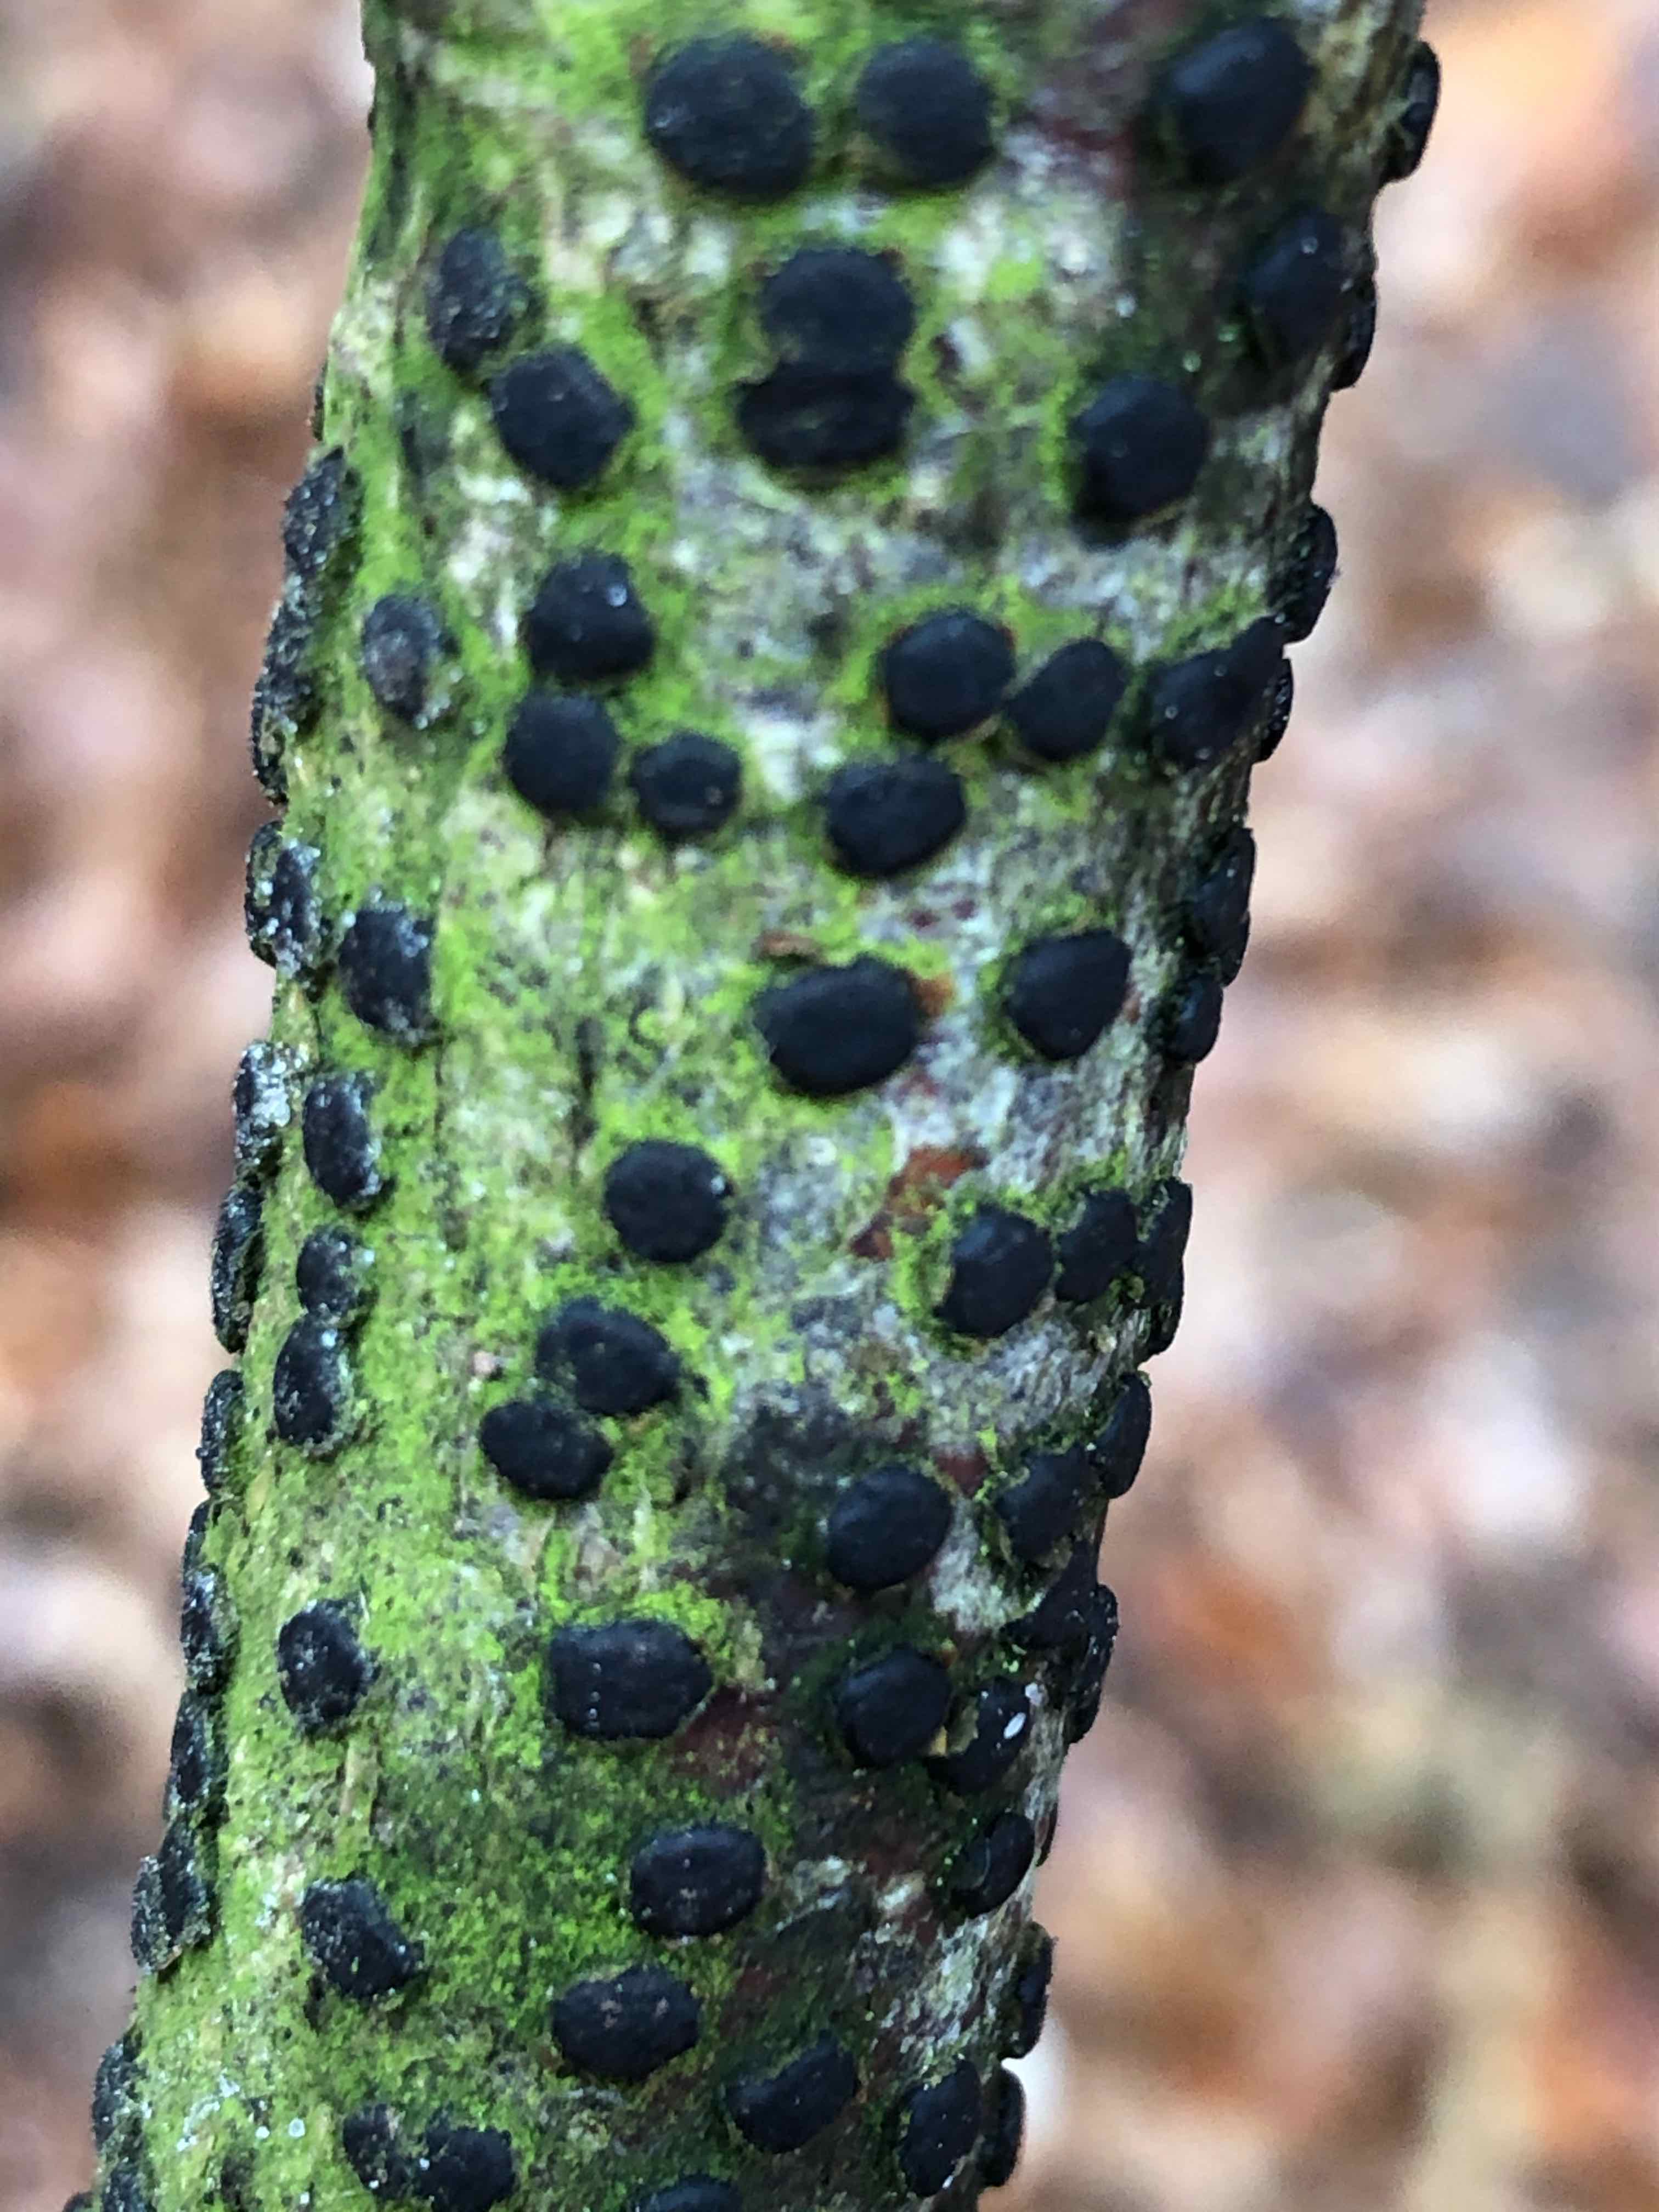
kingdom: Fungi
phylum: Ascomycota
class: Sordariomycetes
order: Xylariales
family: Diatrypaceae
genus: Diatrype
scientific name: Diatrype disciformis
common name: kant-kulskorpe
